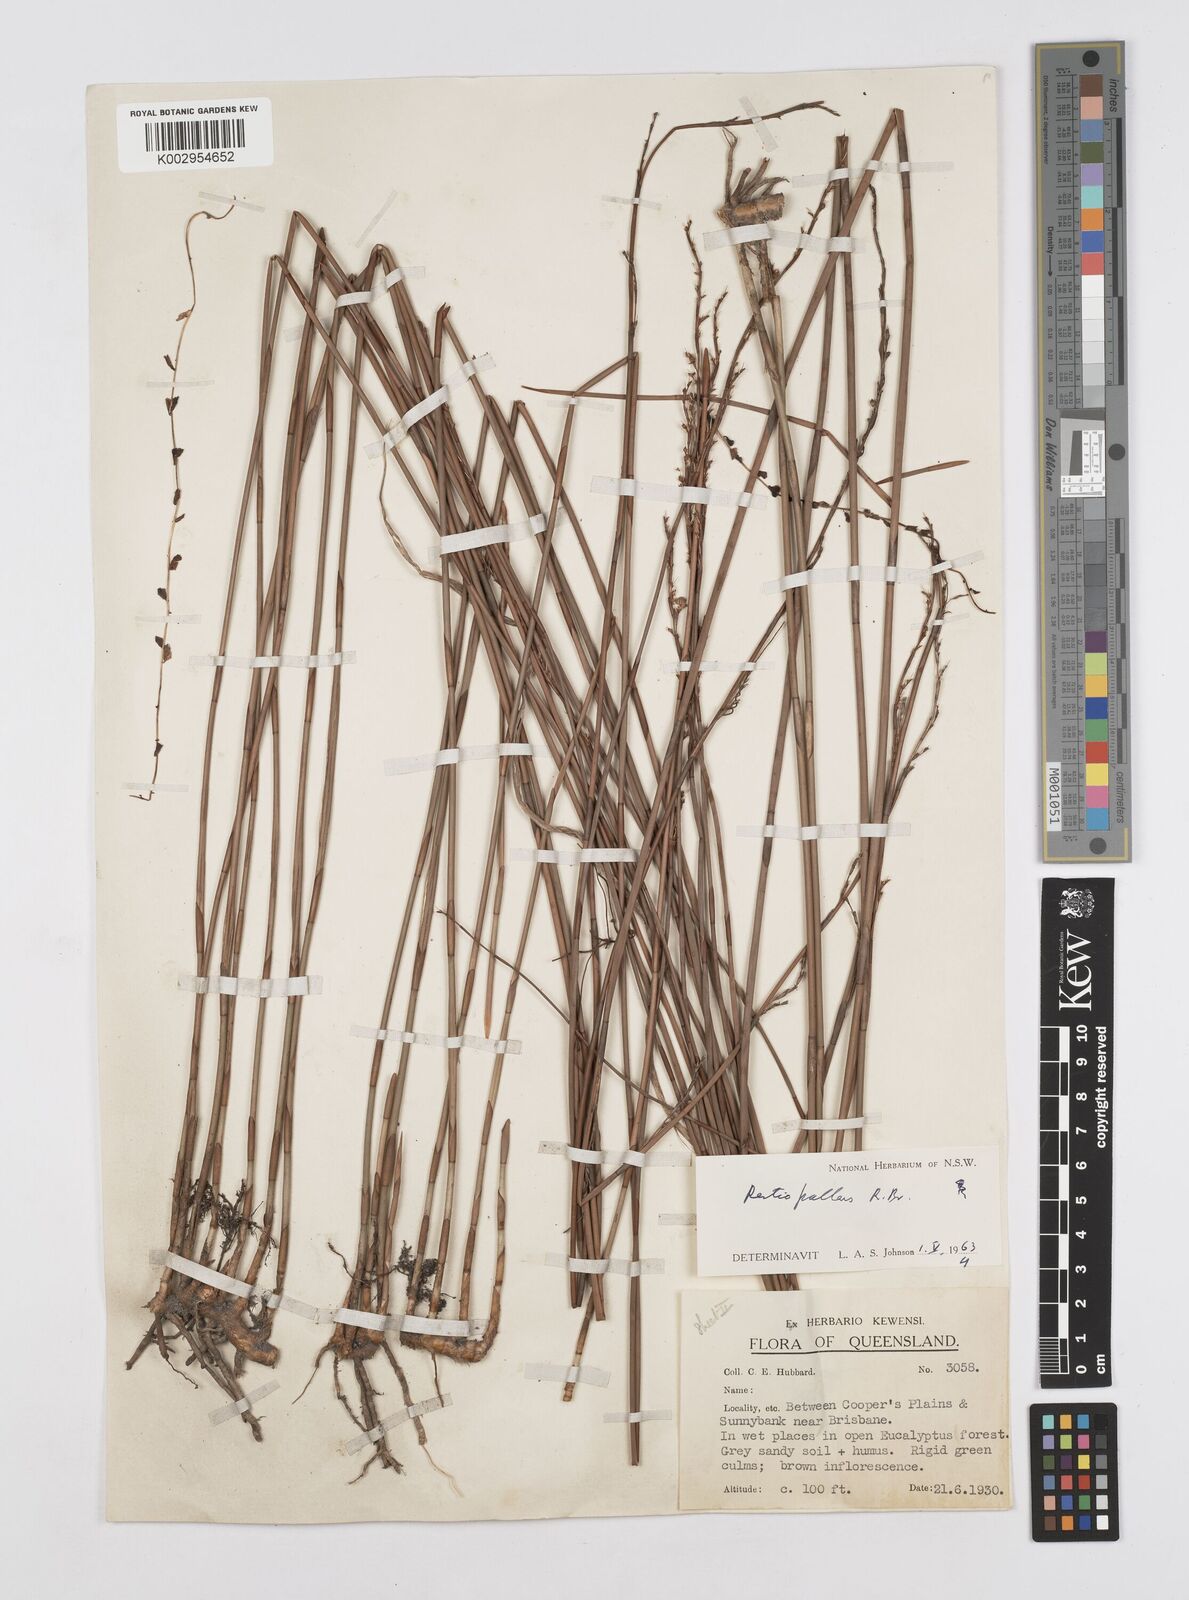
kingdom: Plantae
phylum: Tracheophyta
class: Liliopsida
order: Poales
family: Restionaceae
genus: Baloskion
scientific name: Baloskion pallens
